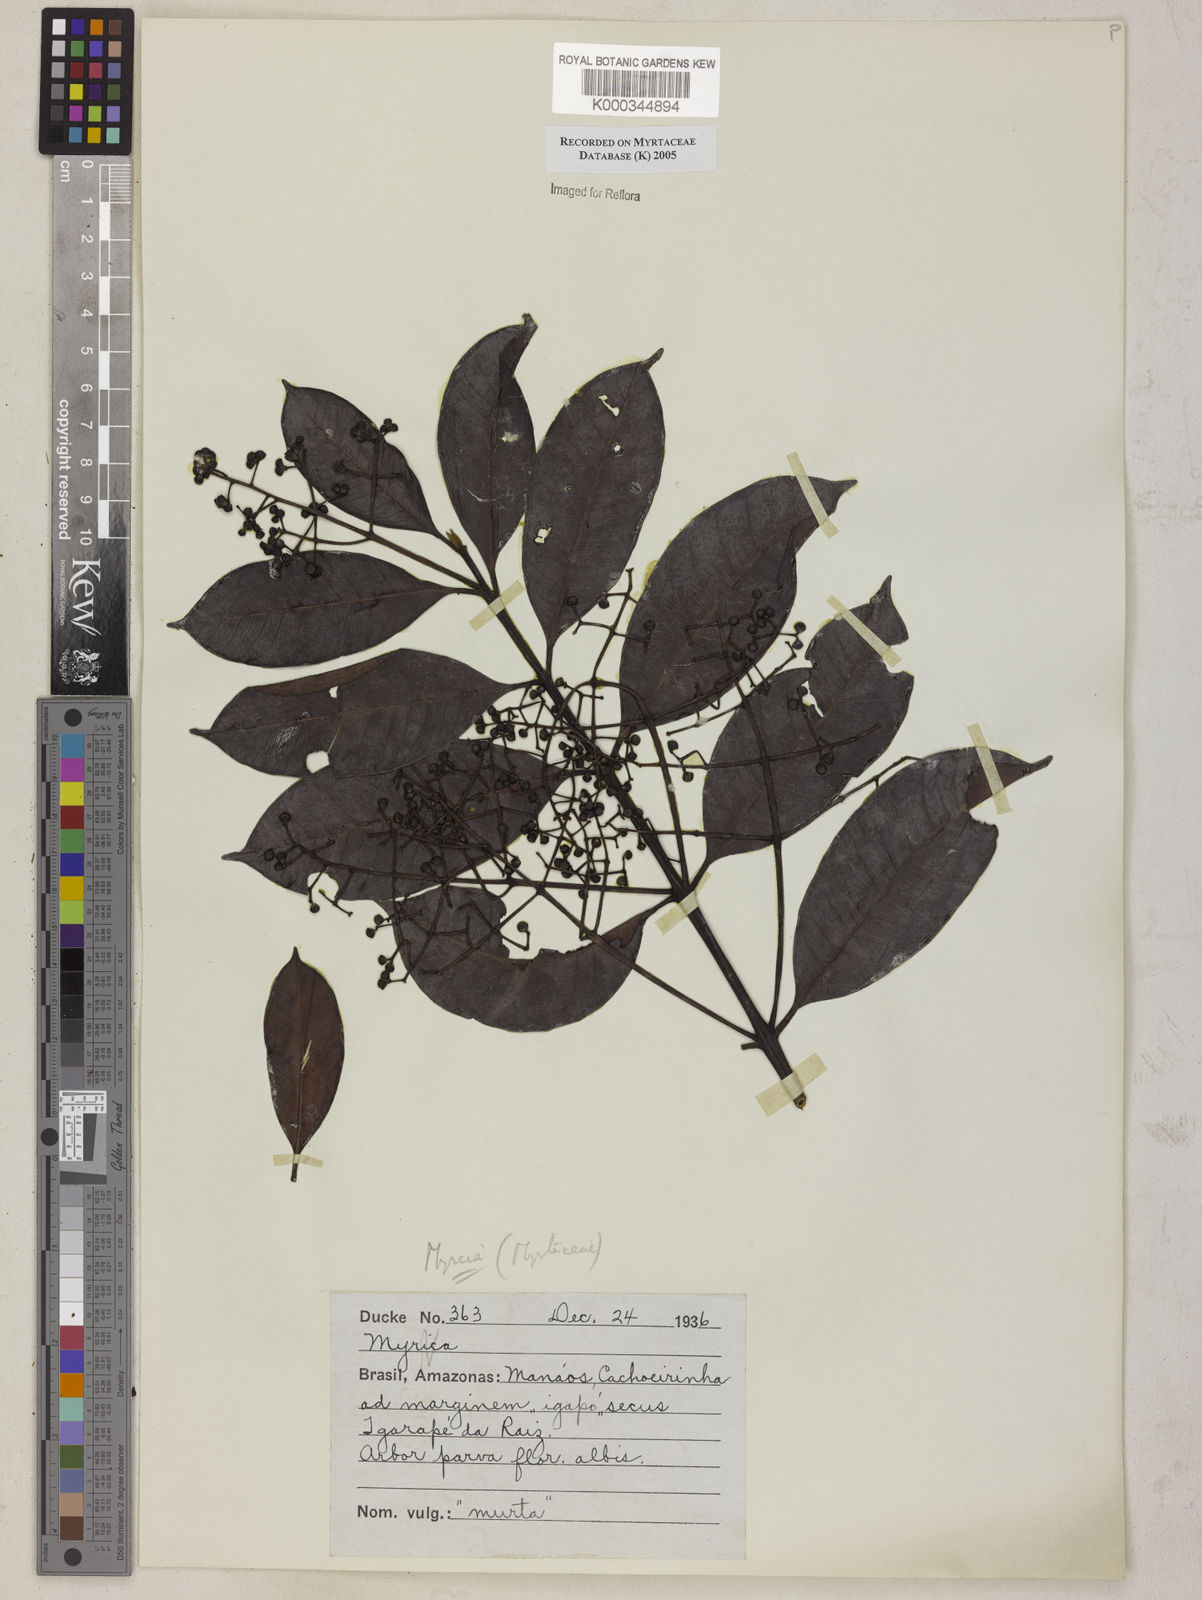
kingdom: Plantae
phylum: Tracheophyta
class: Magnoliopsida
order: Myrtales
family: Myrtaceae
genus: Myrcia
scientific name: Myrcia
